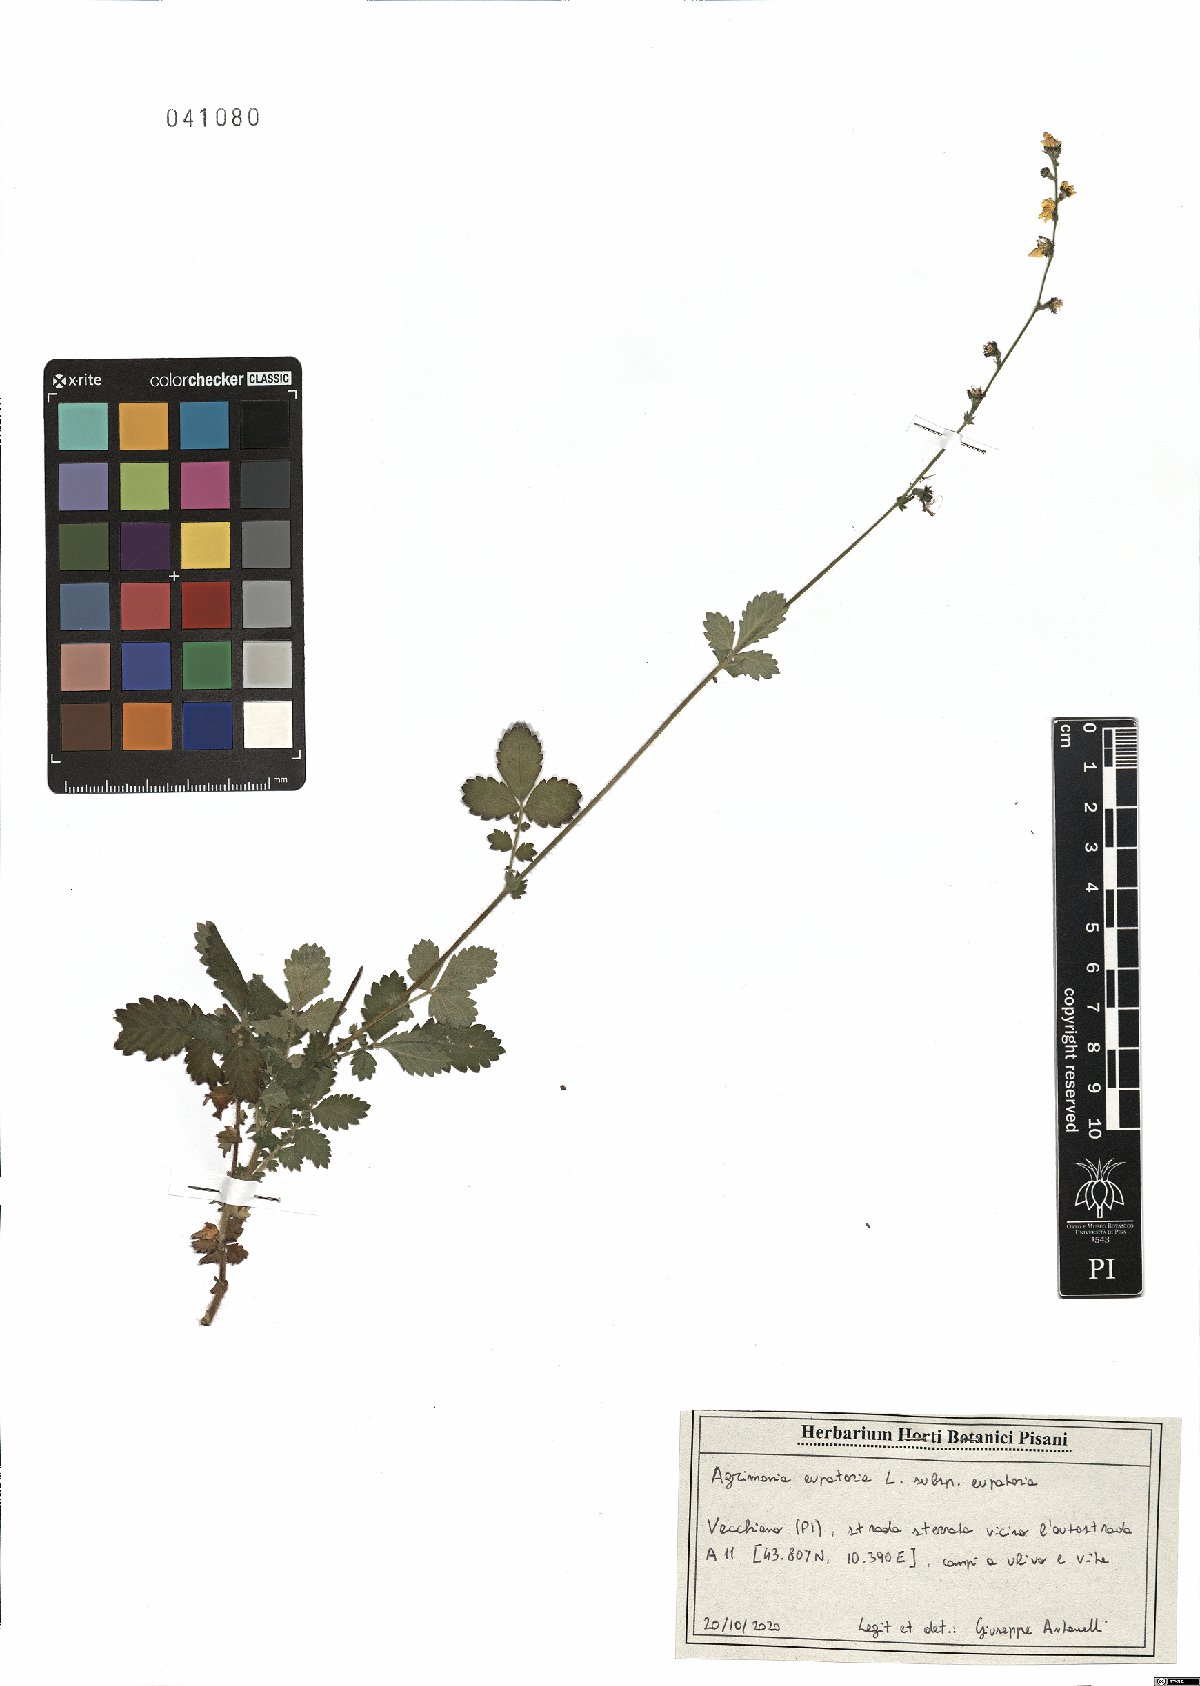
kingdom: Plantae
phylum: Tracheophyta
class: Magnoliopsida
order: Rosales
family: Rosaceae
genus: Agrimonia
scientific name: Agrimonia eupatoria
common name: Agrimony
